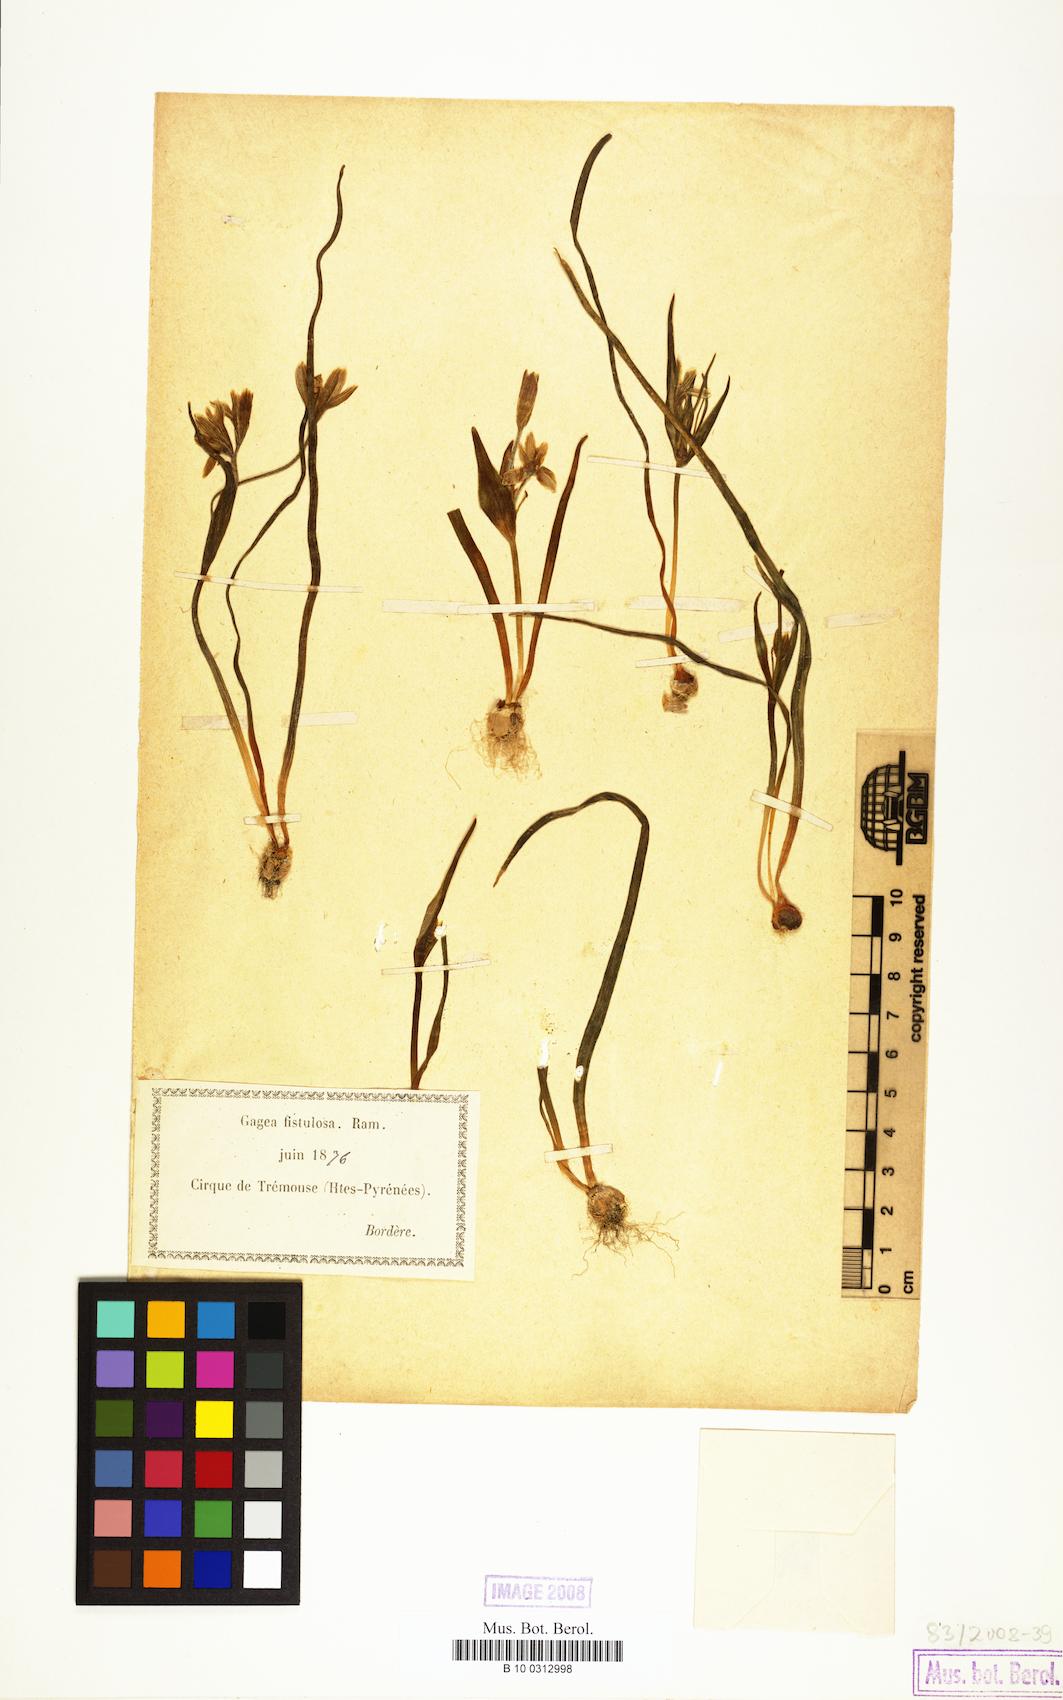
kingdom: Plantae
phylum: Tracheophyta
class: Liliopsida
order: Liliales
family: Liliaceae
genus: Gagea
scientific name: Gagea
